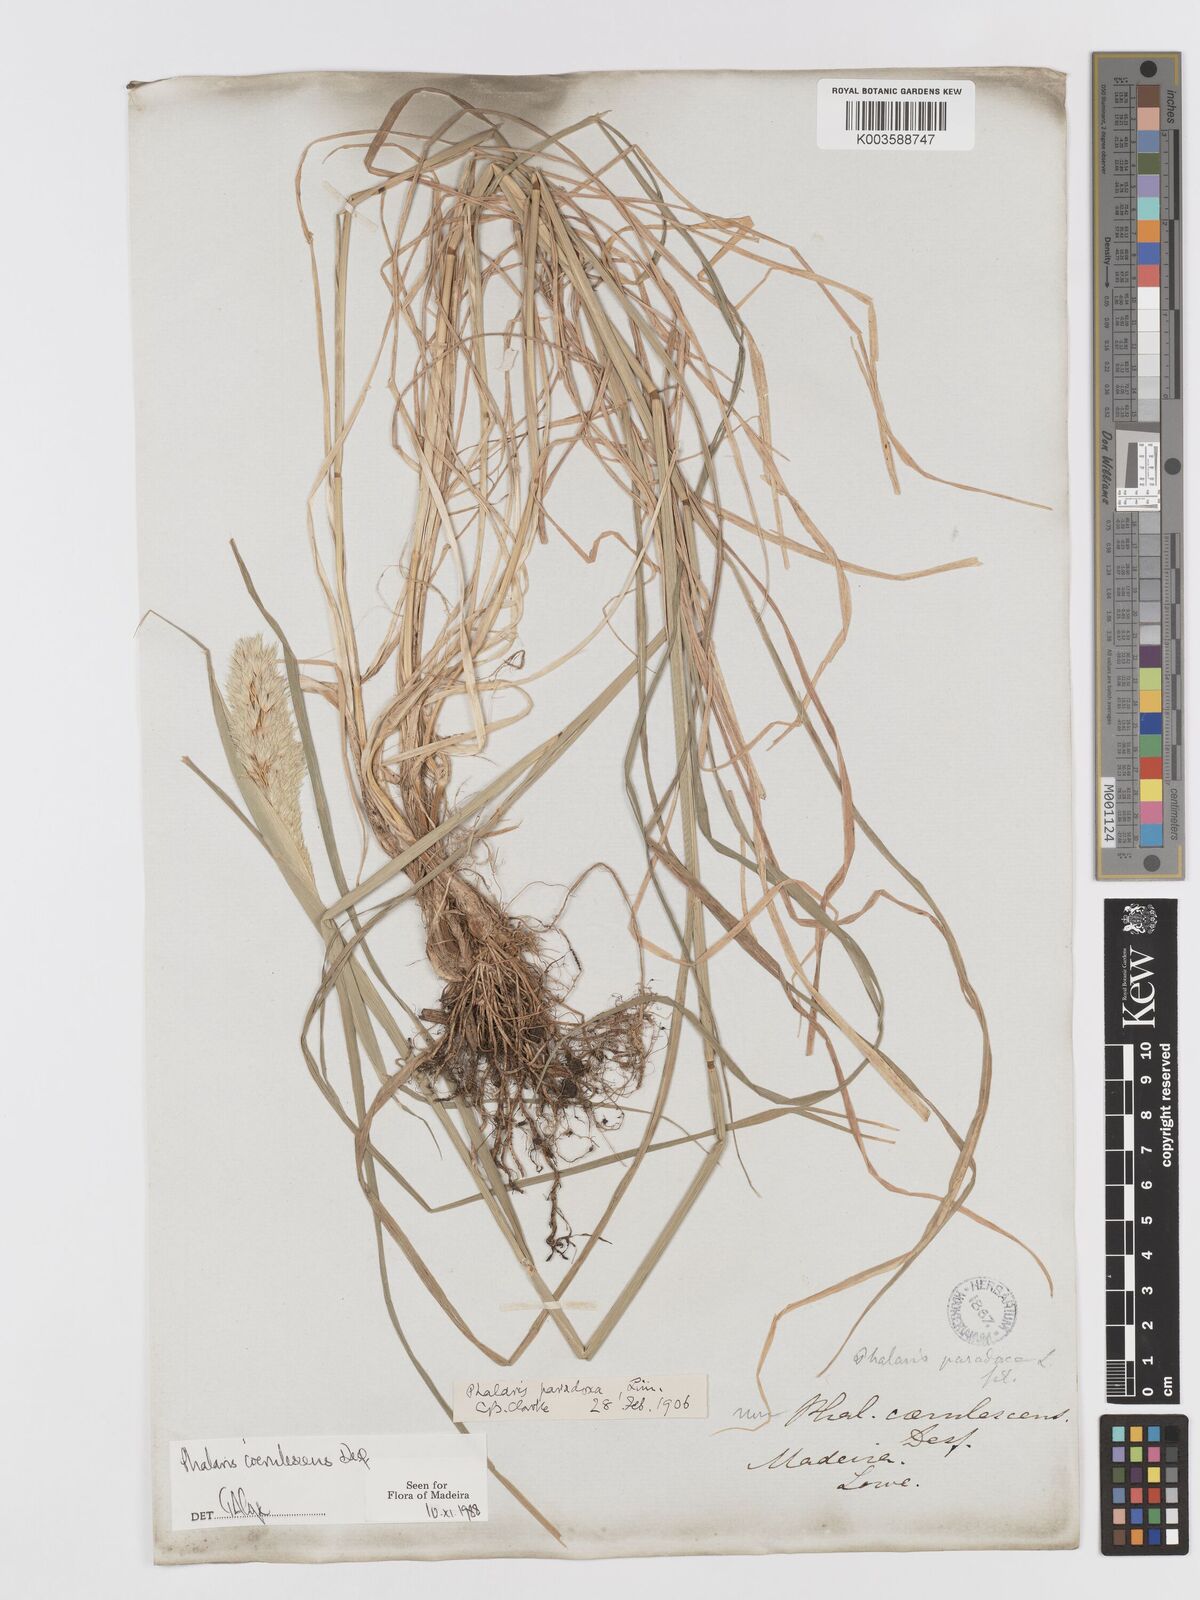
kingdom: Plantae
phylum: Tracheophyta
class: Liliopsida
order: Poales
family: Poaceae
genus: Phalaris
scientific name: Phalaris coerulescens
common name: Sunolgrass
